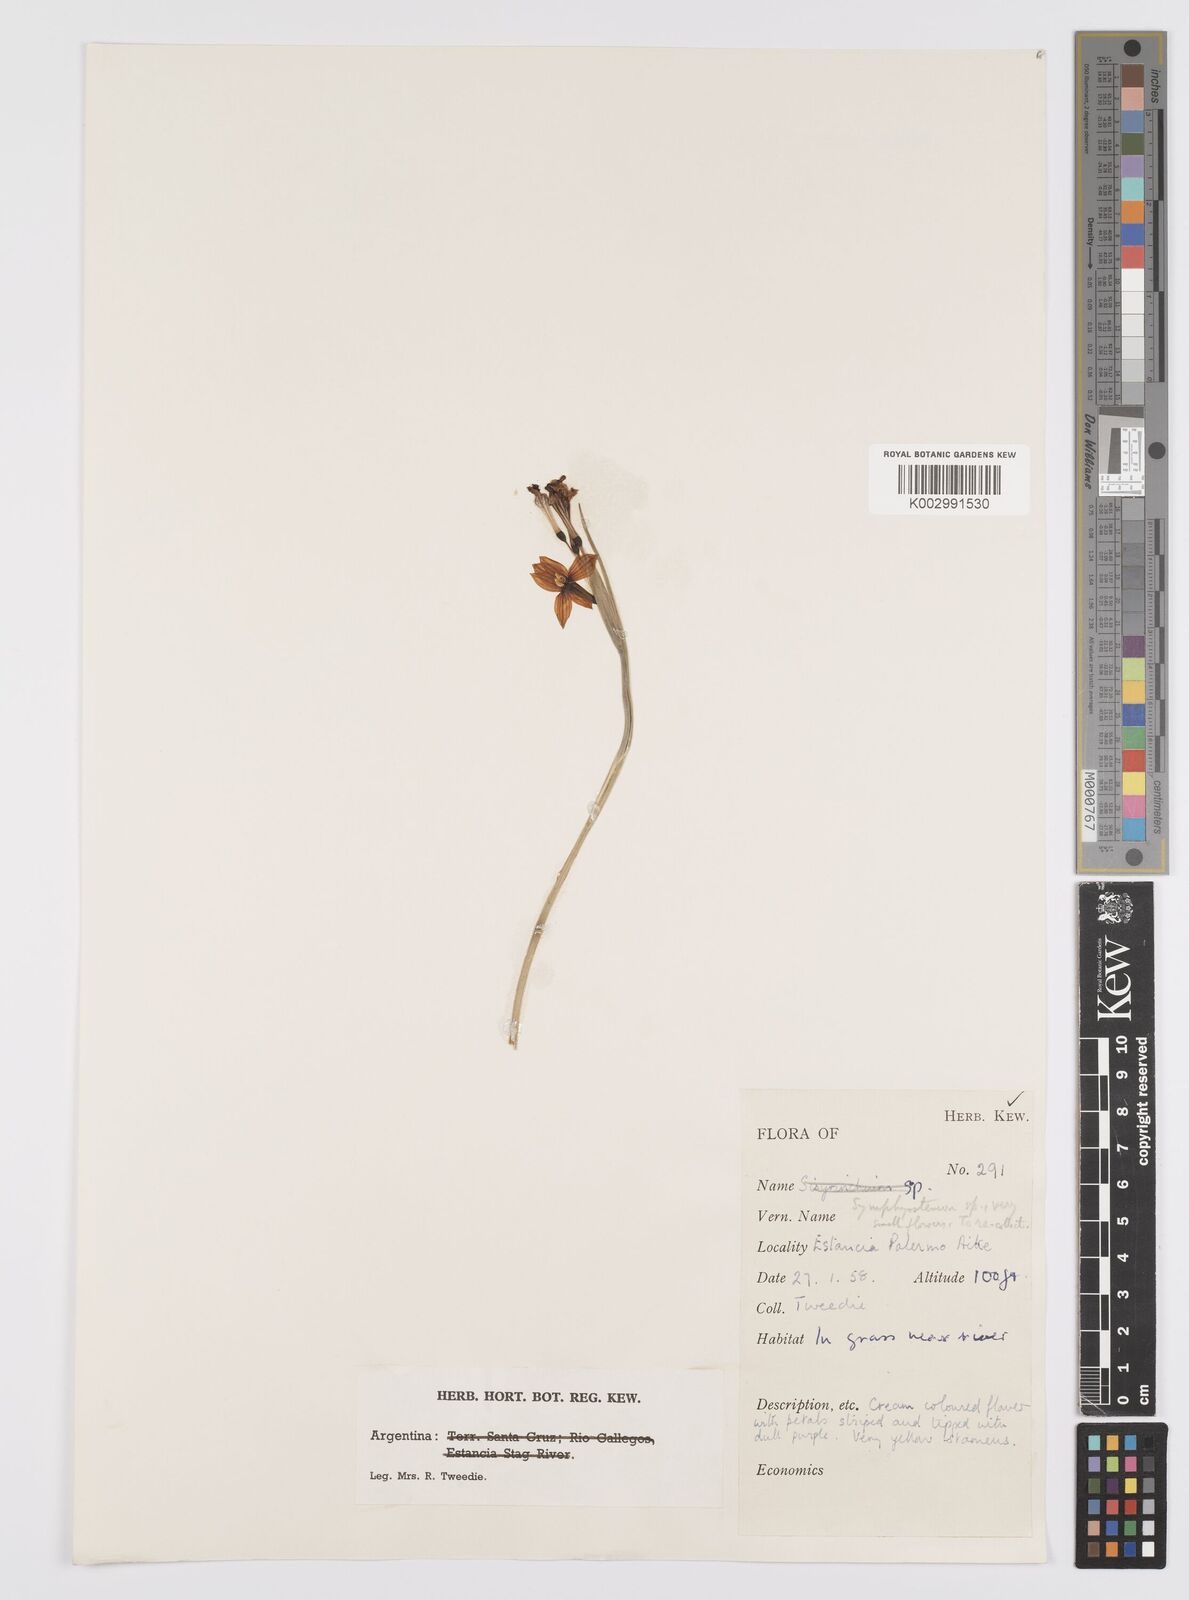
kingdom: Plantae
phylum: Tracheophyta
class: Liliopsida
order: Asparagales
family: Iridaceae
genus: Olsynium
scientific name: Olsynium
